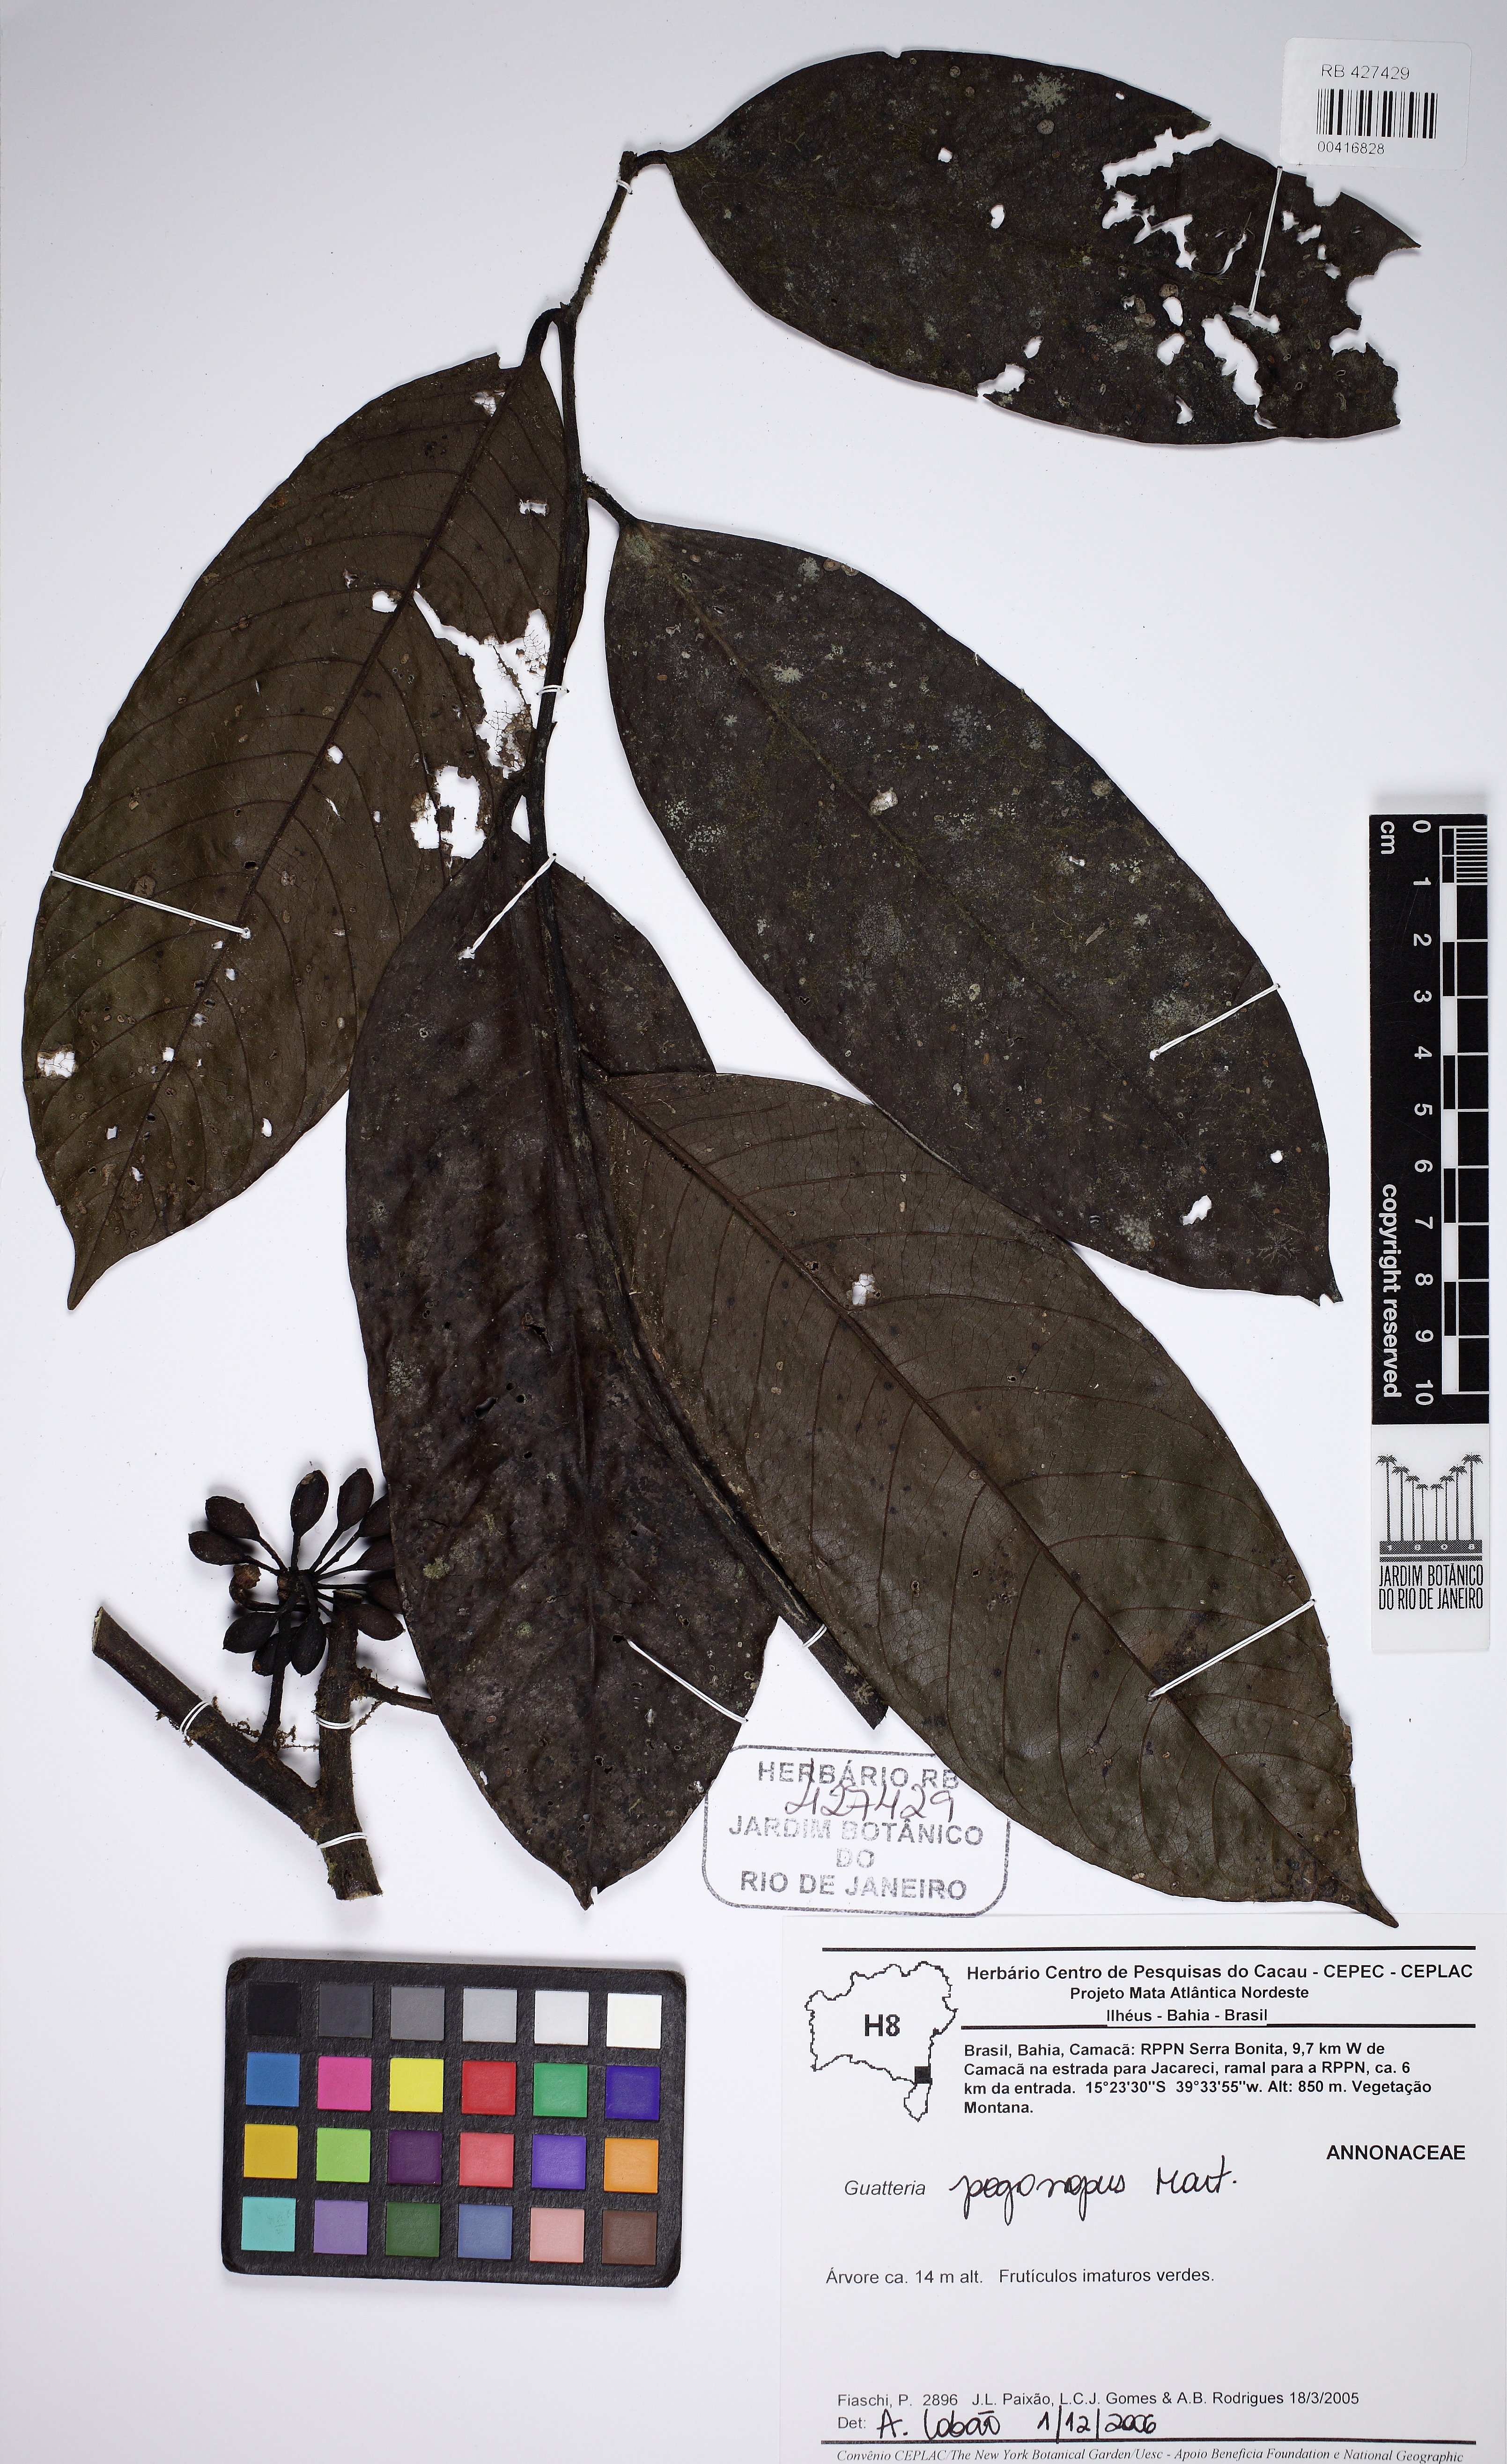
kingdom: Plantae
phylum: Tracheophyta
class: Magnoliopsida
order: Magnoliales
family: Annonaceae
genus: Guatteria
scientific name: Guatteria pogonopus
